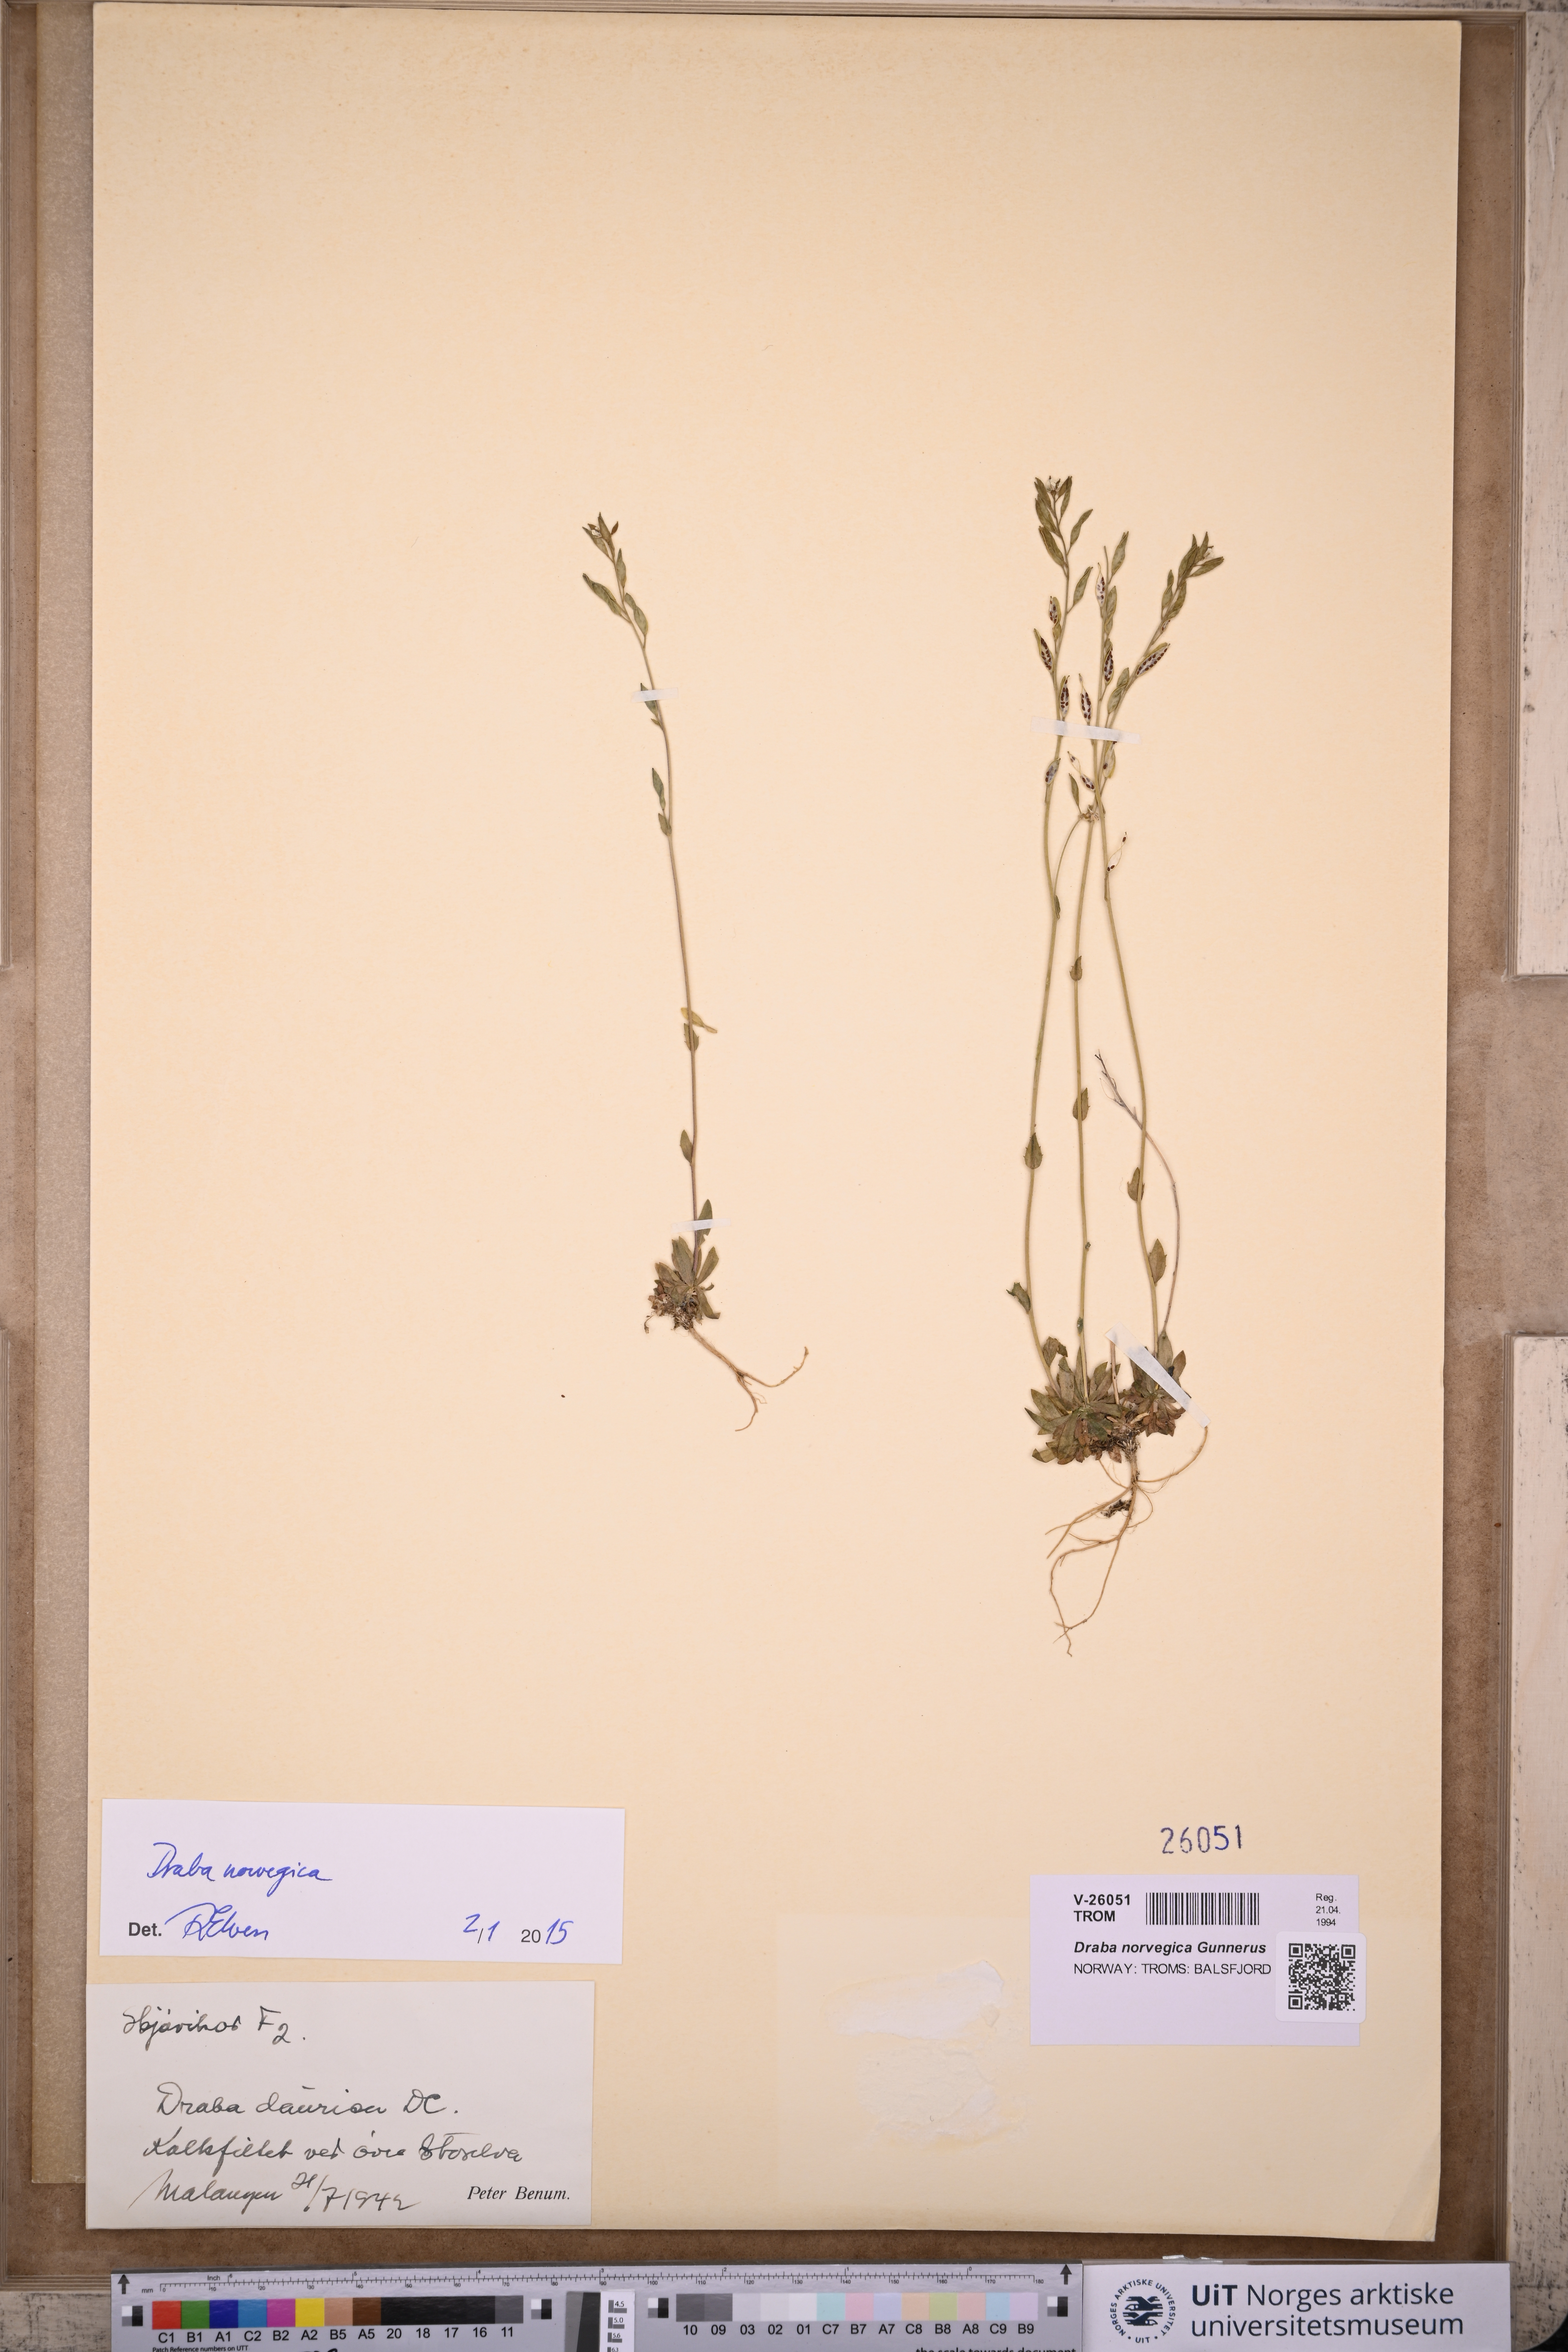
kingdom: Plantae
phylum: Tracheophyta
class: Magnoliopsida
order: Brassicales
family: Brassicaceae
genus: Draba
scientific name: Draba norvegica
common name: Rock whitlowgrass
